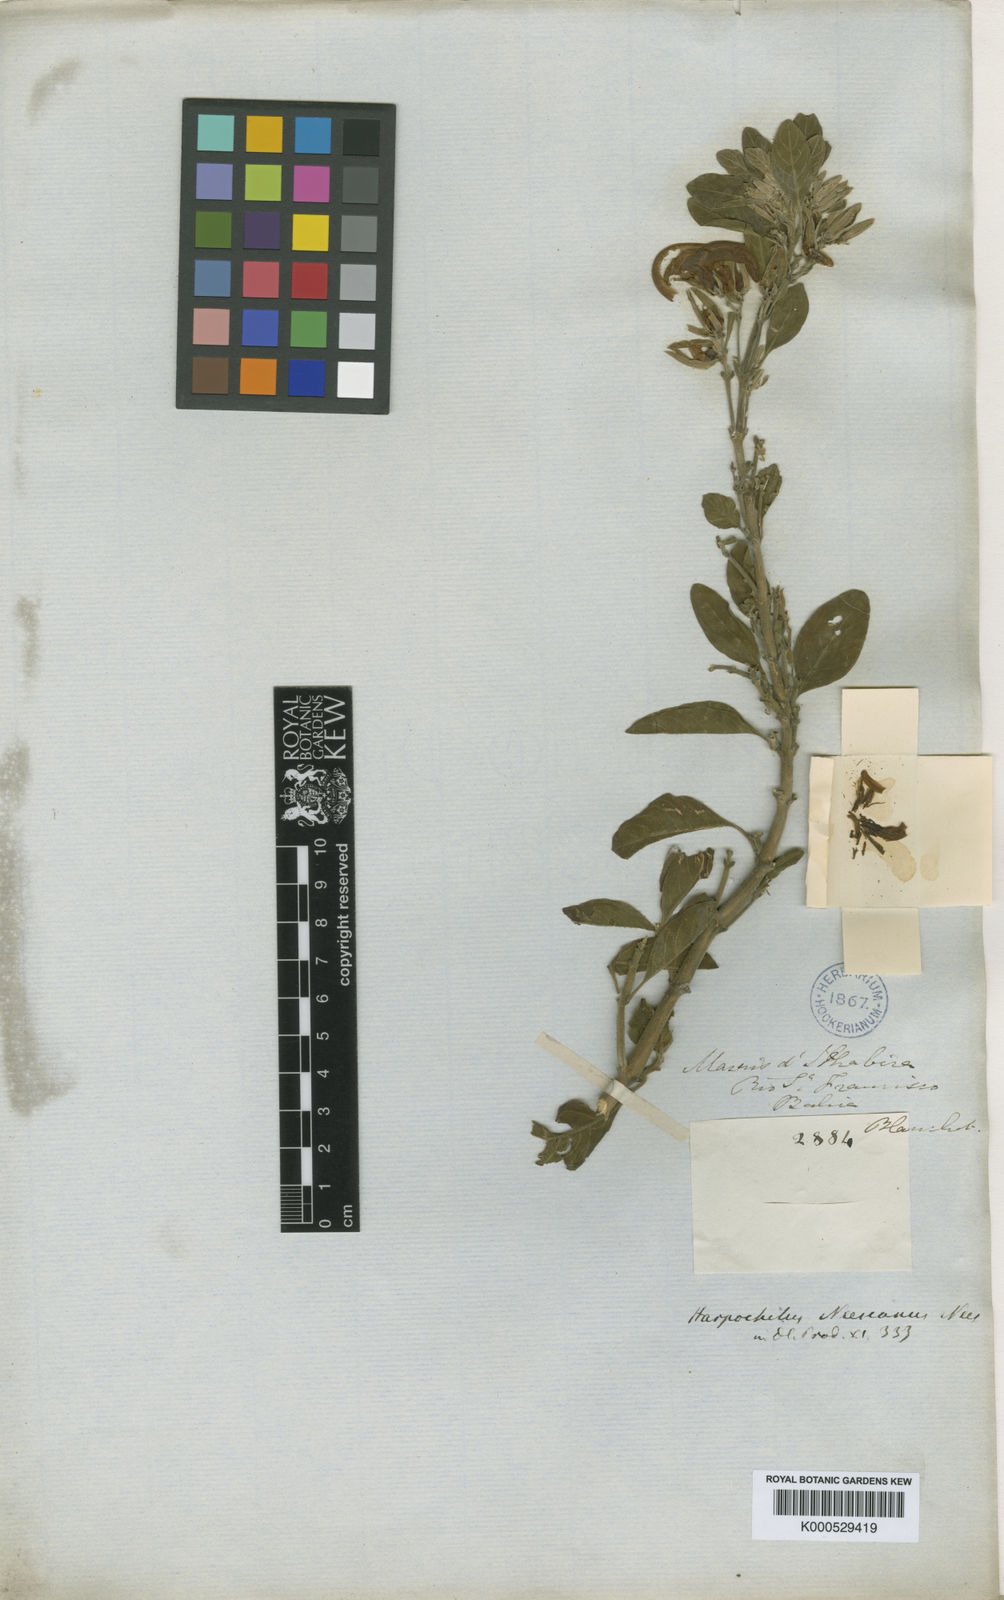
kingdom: Plantae
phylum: Tracheophyta
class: Magnoliopsida
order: Lamiales
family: Acanthaceae
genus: Harpochilus
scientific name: Harpochilus neesianus
